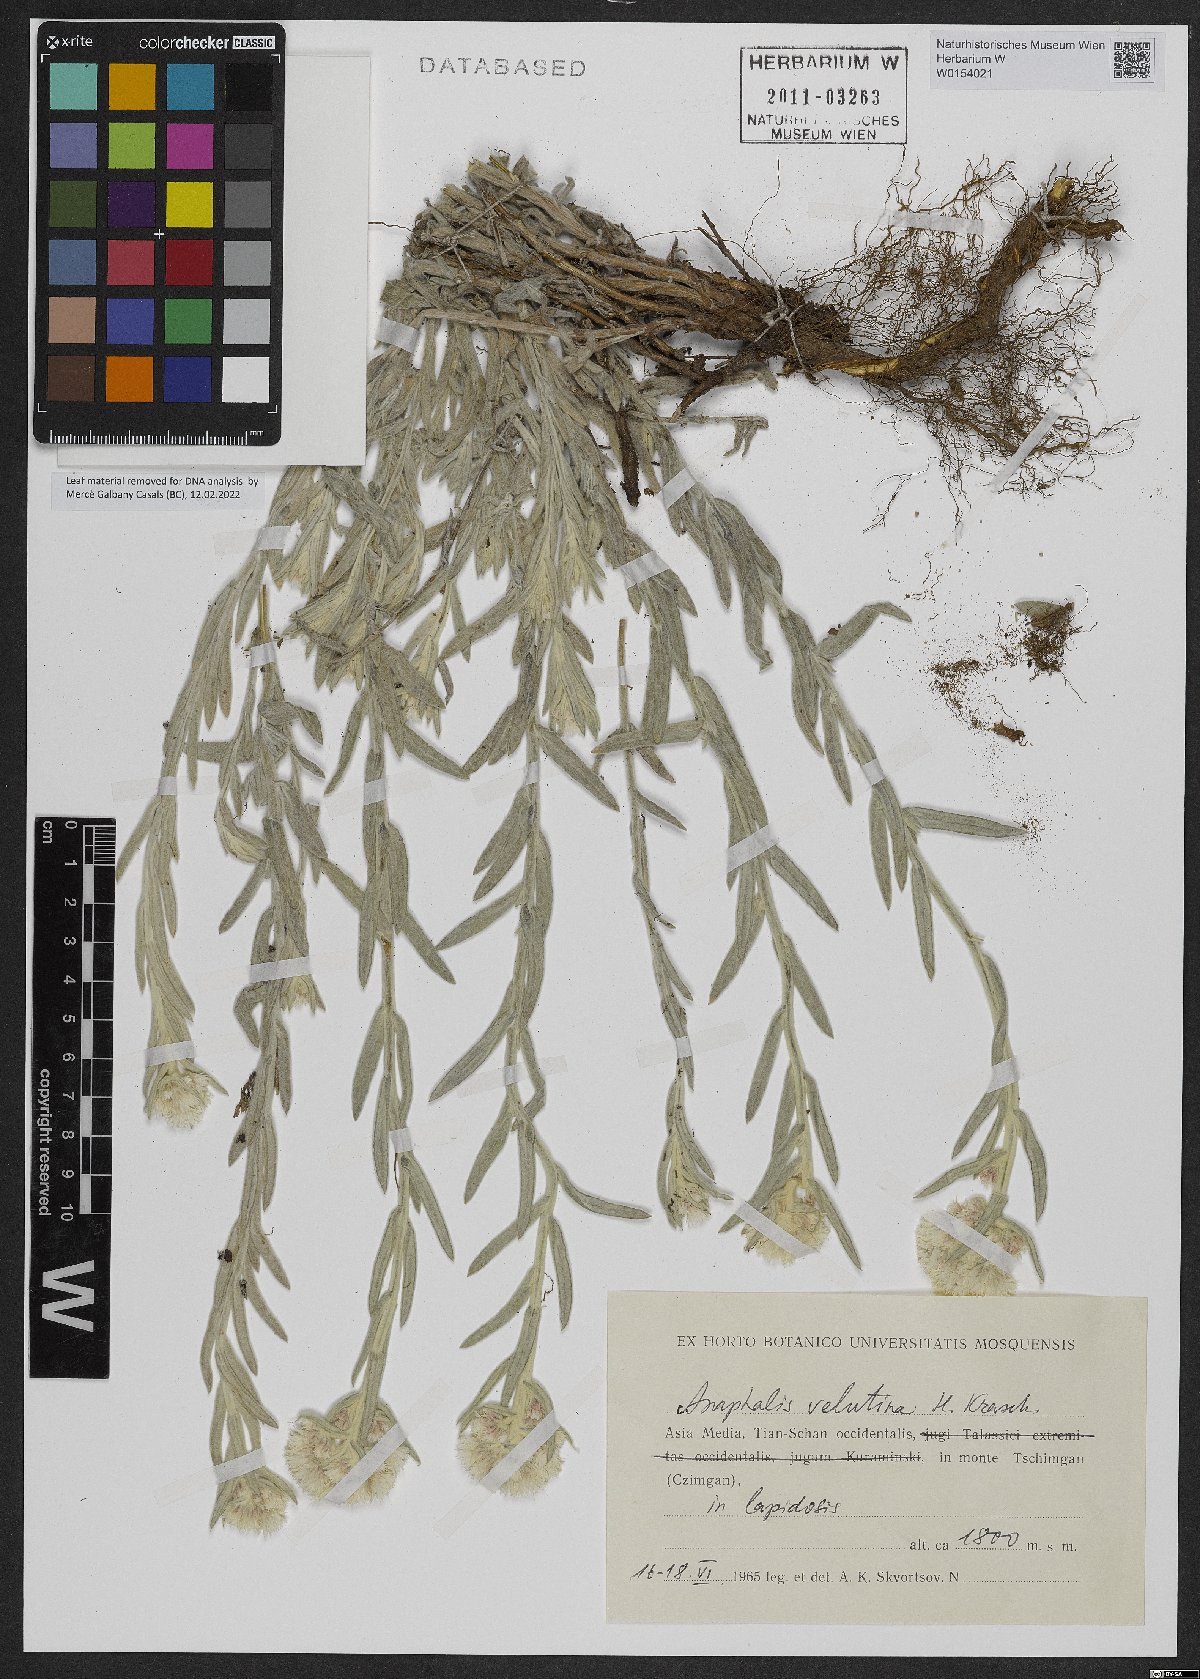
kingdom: Plantae
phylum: Tracheophyta
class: Magnoliopsida
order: Asterales
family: Asteraceae
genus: Anaphalis
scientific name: Anaphalis velutina
